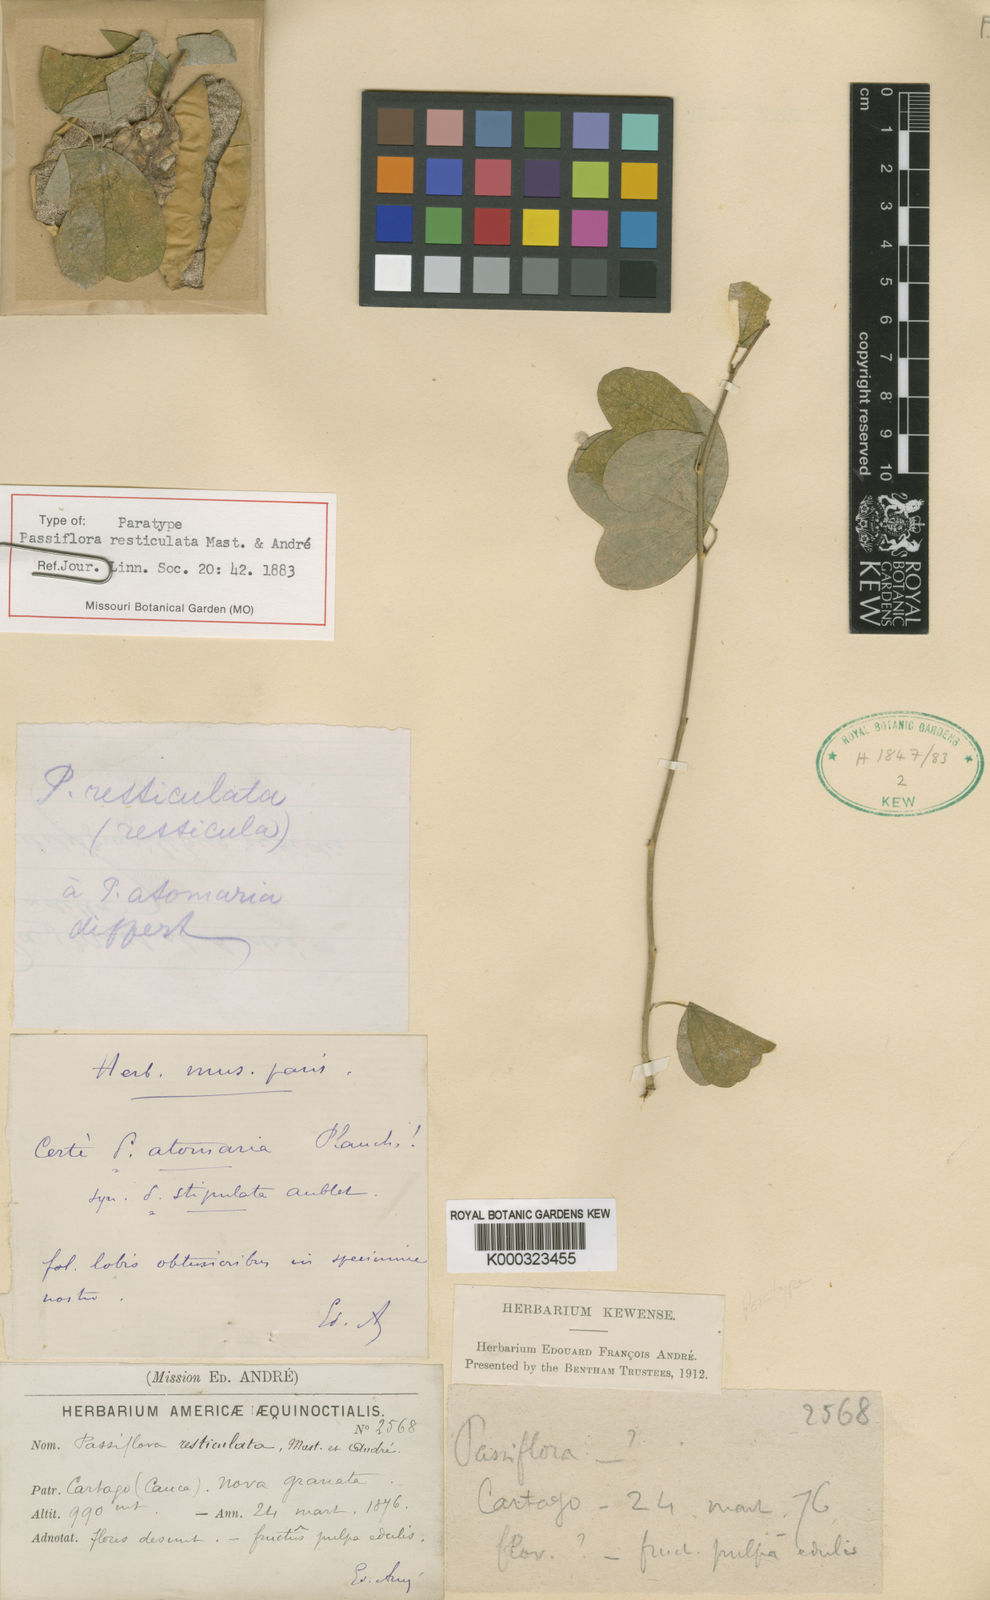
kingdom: Plantae
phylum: Tracheophyta
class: Magnoliopsida
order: Malpighiales
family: Passifloraceae
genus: Passiflora
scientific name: Passiflora resticulata
